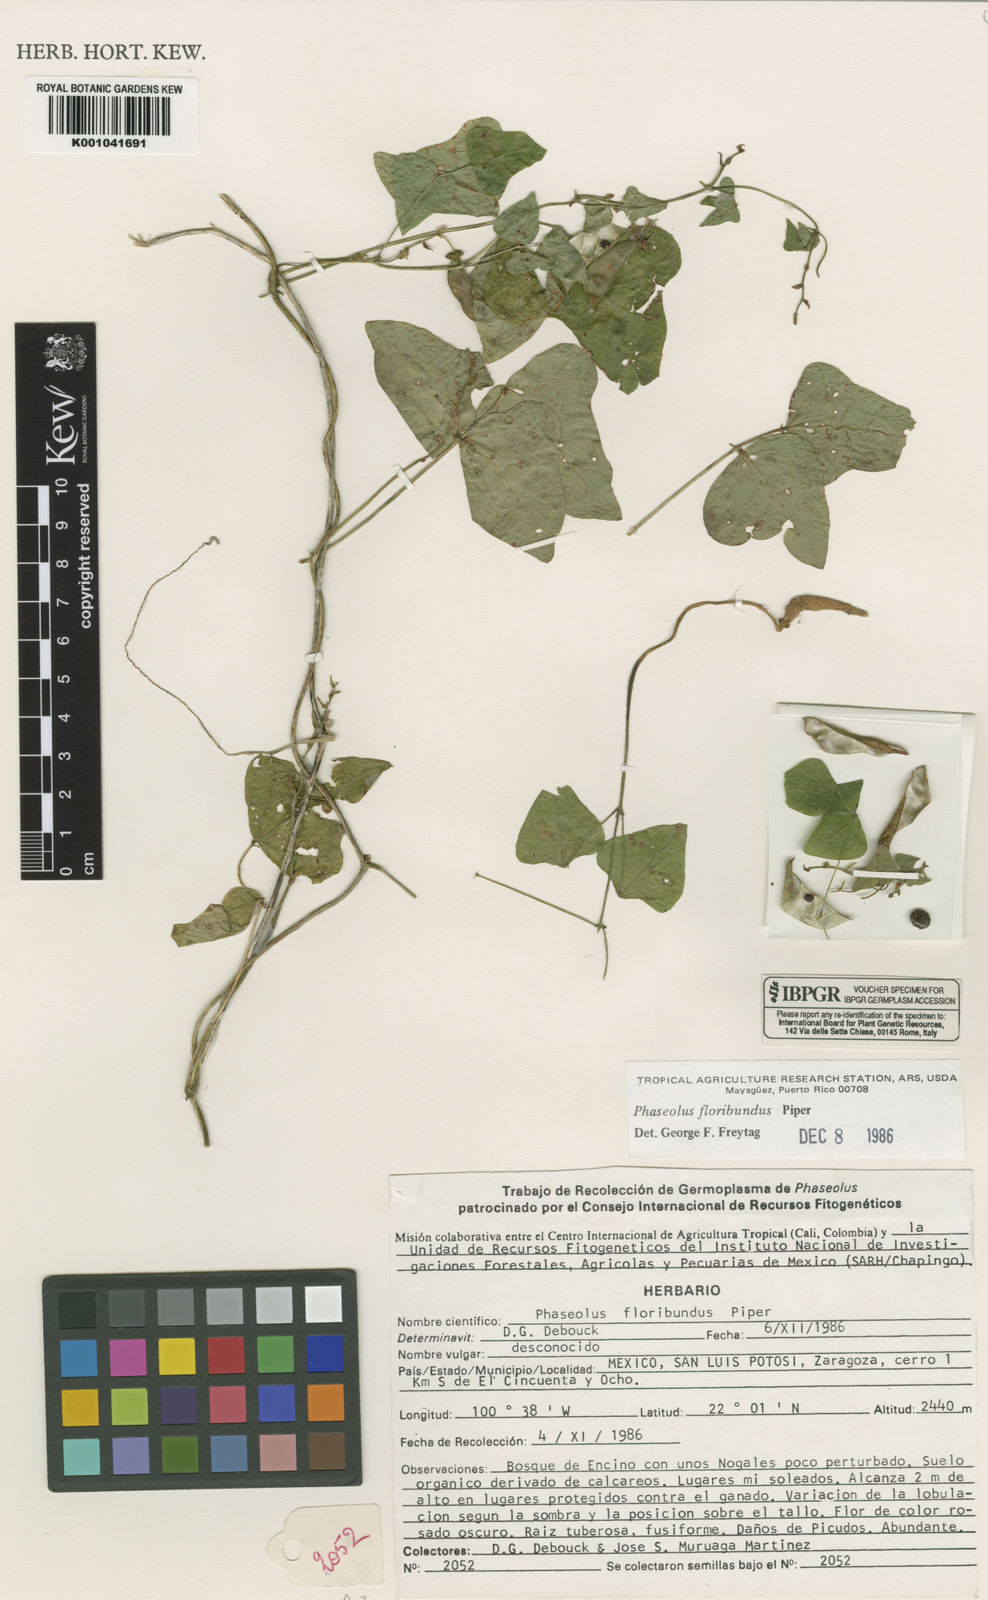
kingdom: Plantae
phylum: Tracheophyta
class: Magnoliopsida
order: Fabales
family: Fabaceae
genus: Phaseolus
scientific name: Phaseolus pedicellatus
